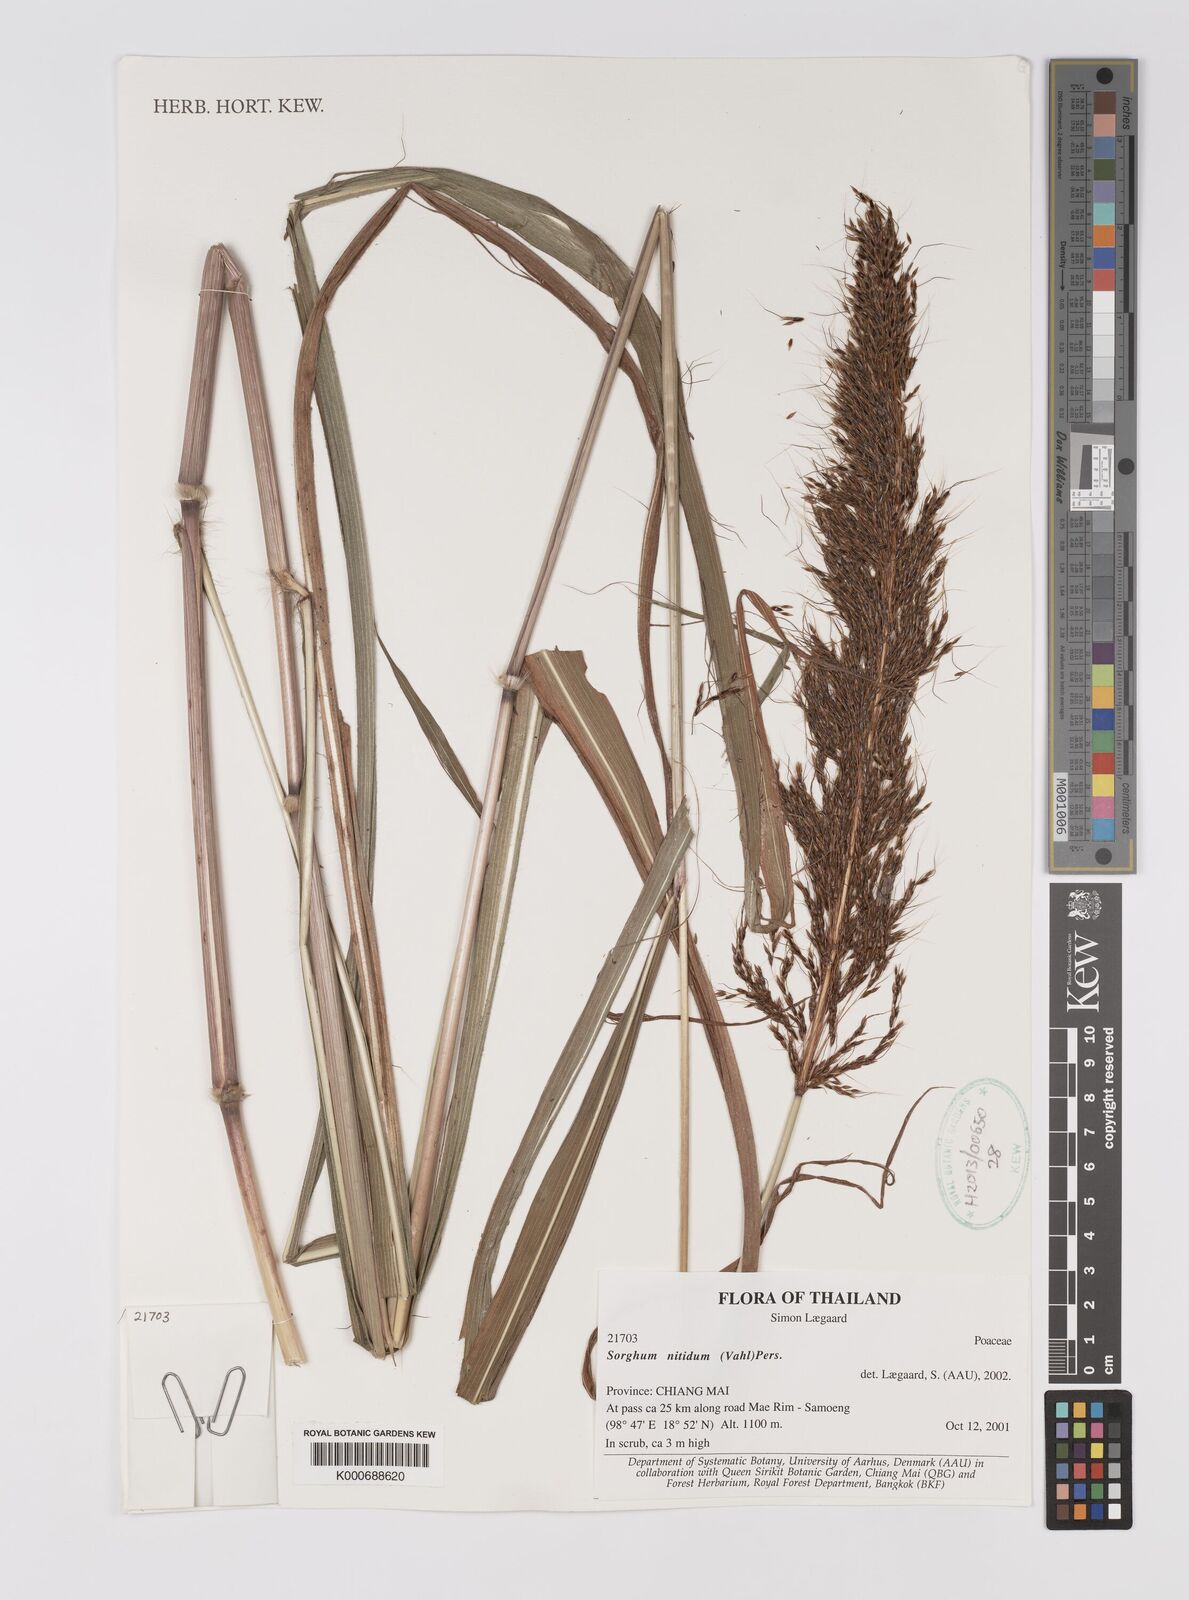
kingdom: Plantae
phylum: Tracheophyta
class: Liliopsida
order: Poales
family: Poaceae
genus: Sorghum
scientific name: Sorghum nitidum
